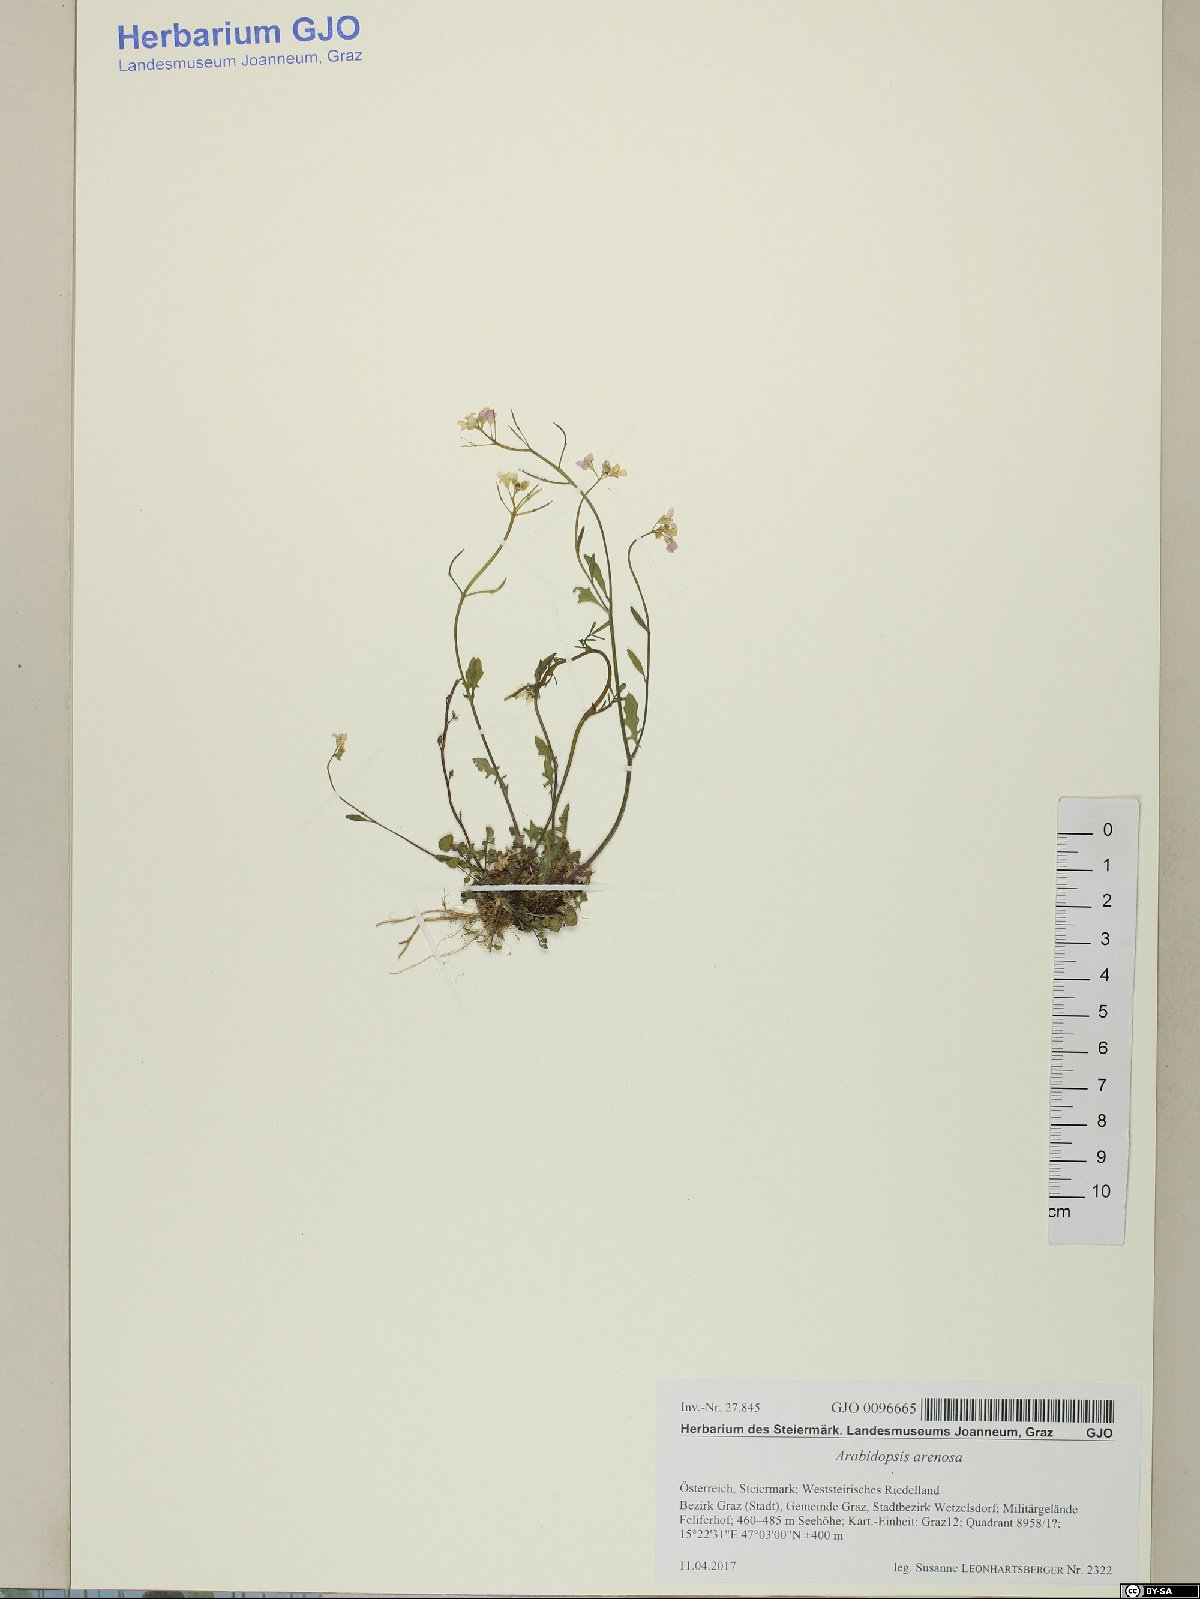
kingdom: Plantae
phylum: Tracheophyta
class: Magnoliopsida
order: Brassicales
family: Brassicaceae
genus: Arabidopsis
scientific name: Arabidopsis arenosa
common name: Sand rock-cress
